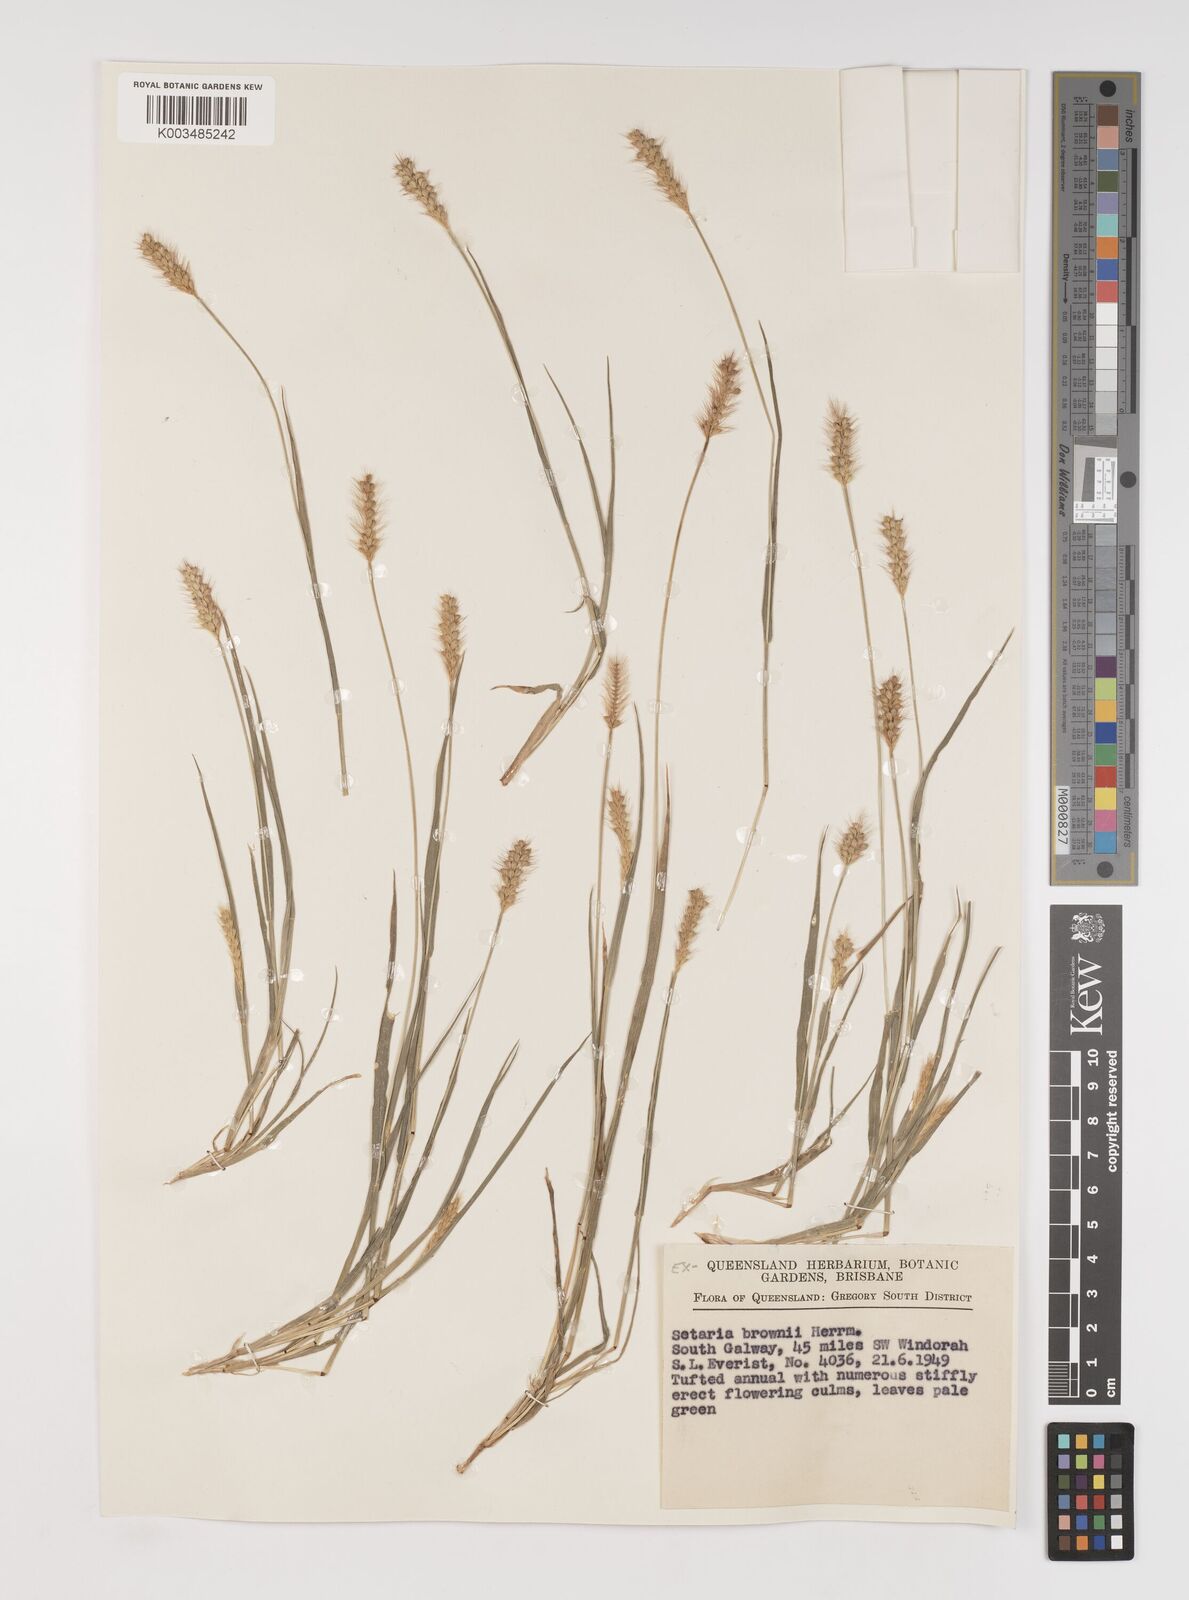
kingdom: Plantae
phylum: Tracheophyta
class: Liliopsida
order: Poales
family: Poaceae
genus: Setaria
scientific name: Setaria surgens
